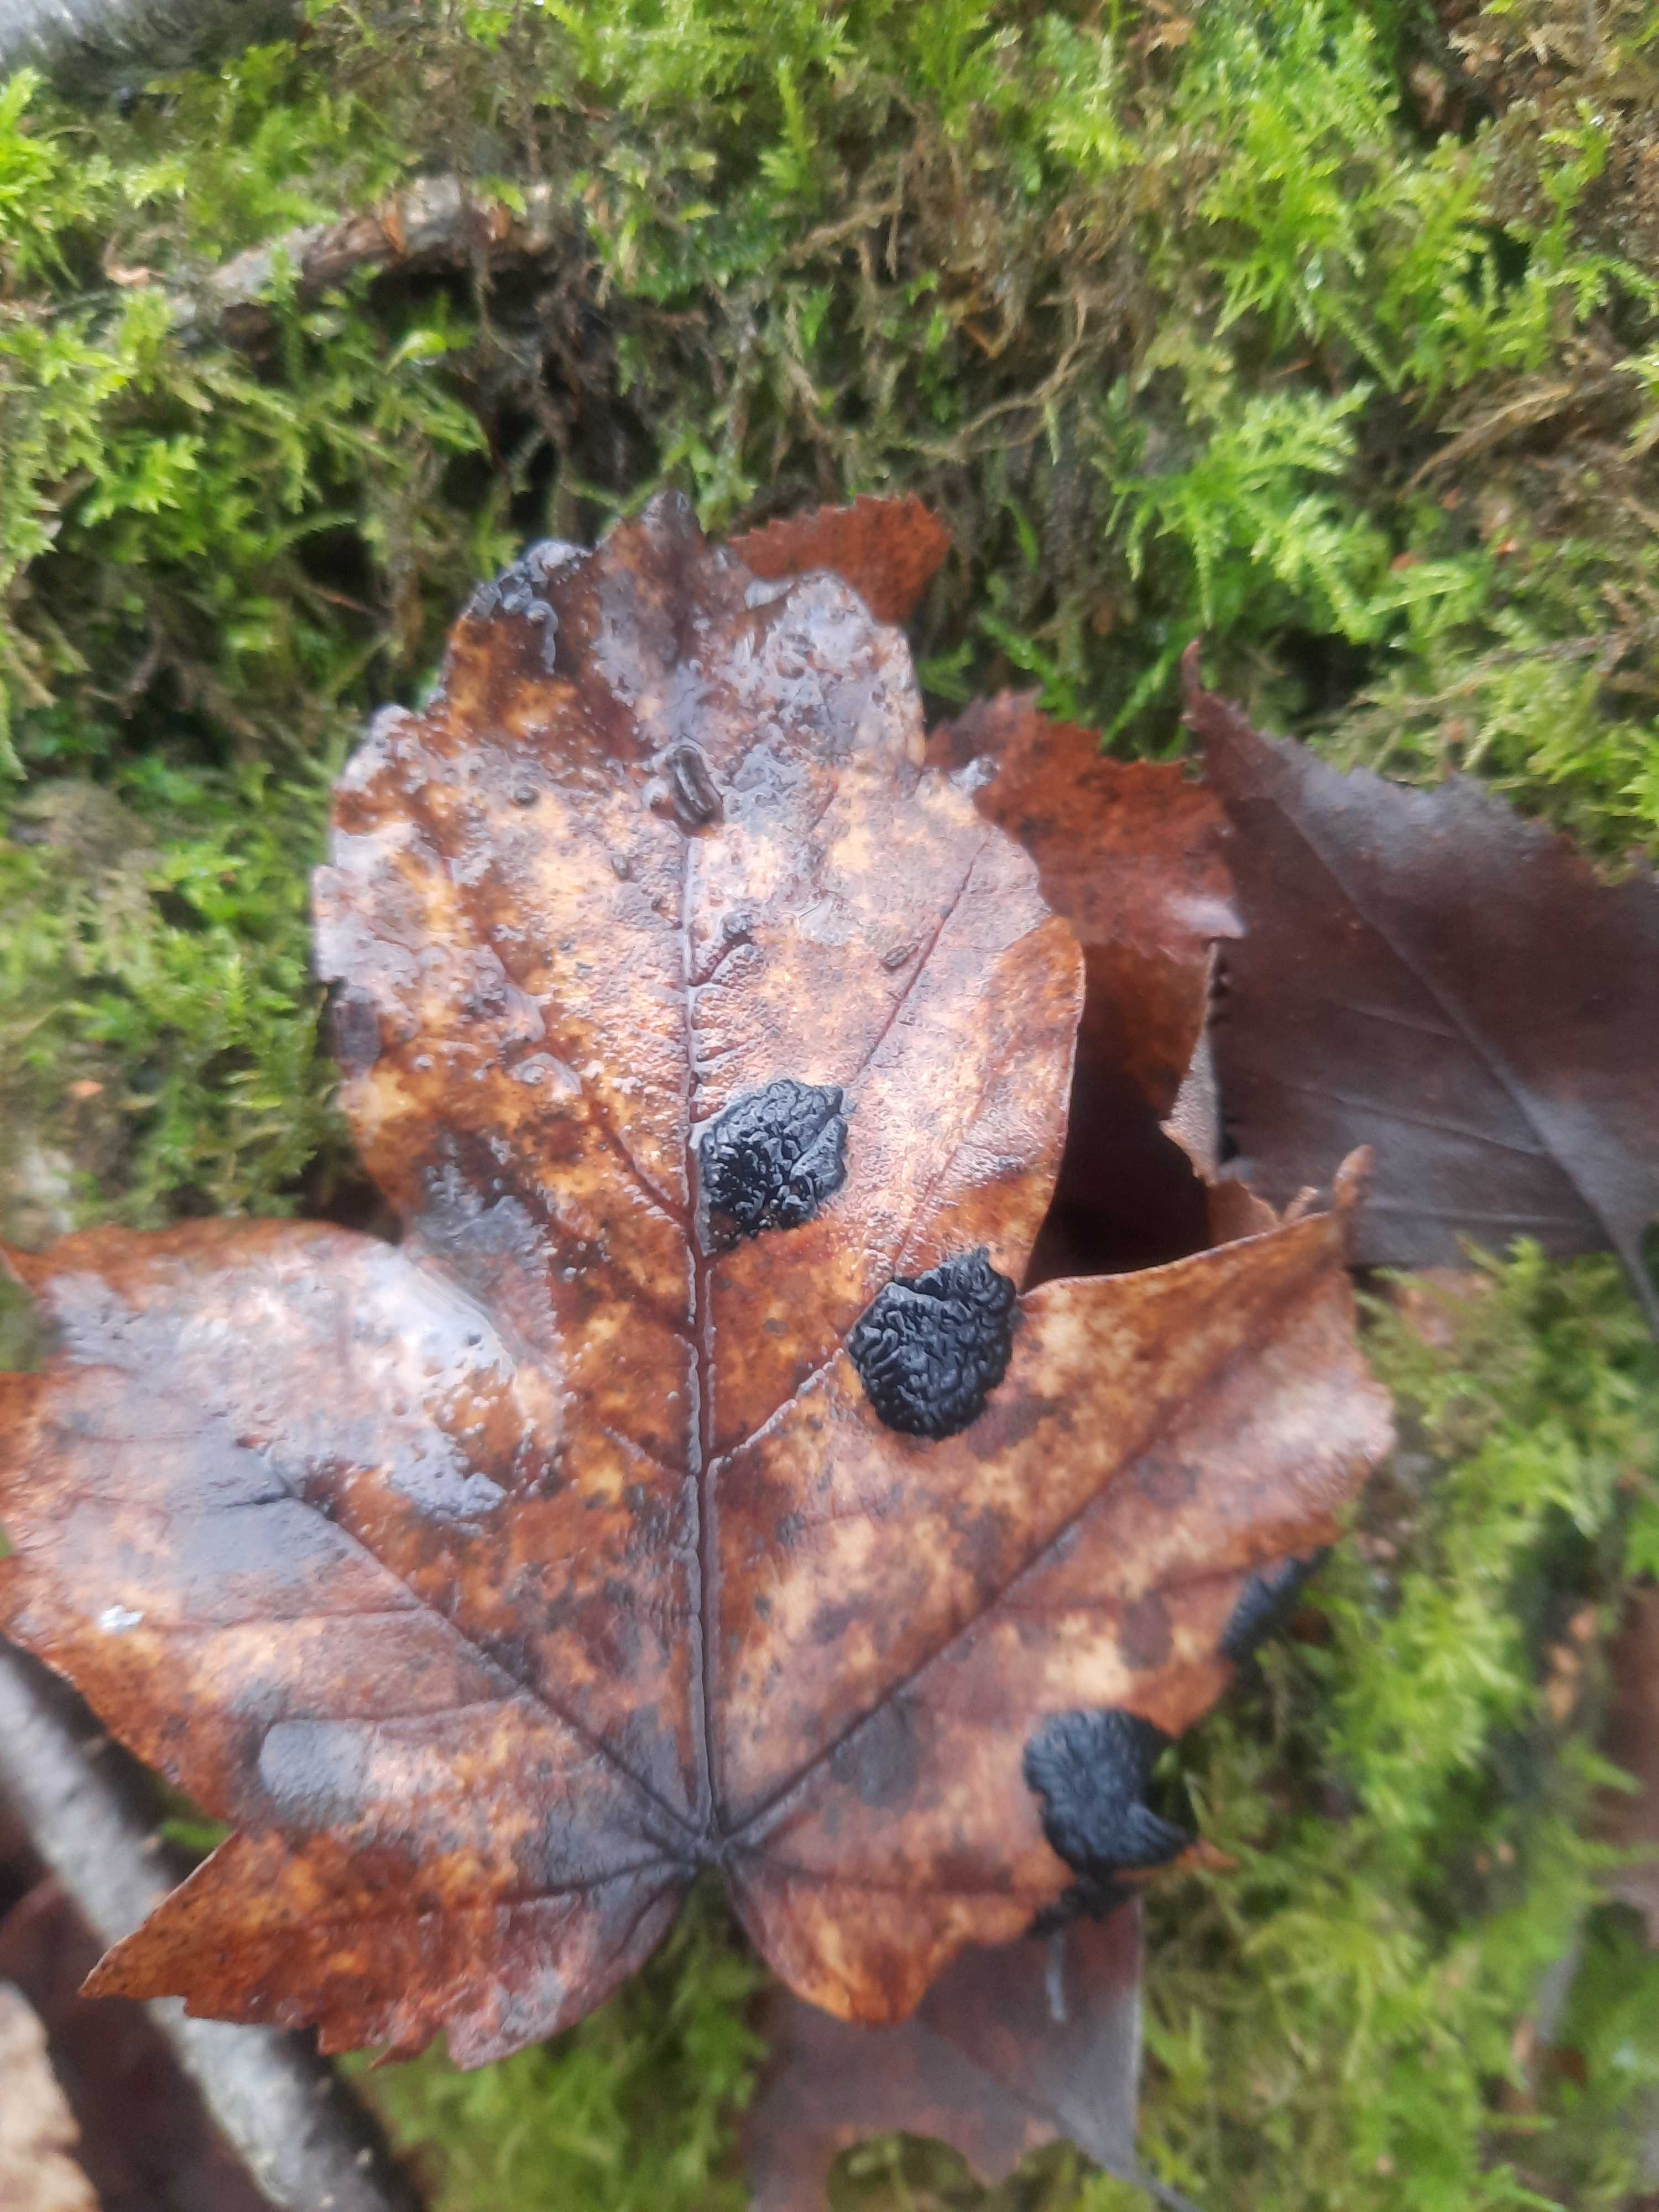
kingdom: Fungi
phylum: Ascomycota
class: Leotiomycetes
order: Rhytismatales
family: Rhytismataceae
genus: Rhytisma
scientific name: Rhytisma acerinum
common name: ahorn-rynkeplet
